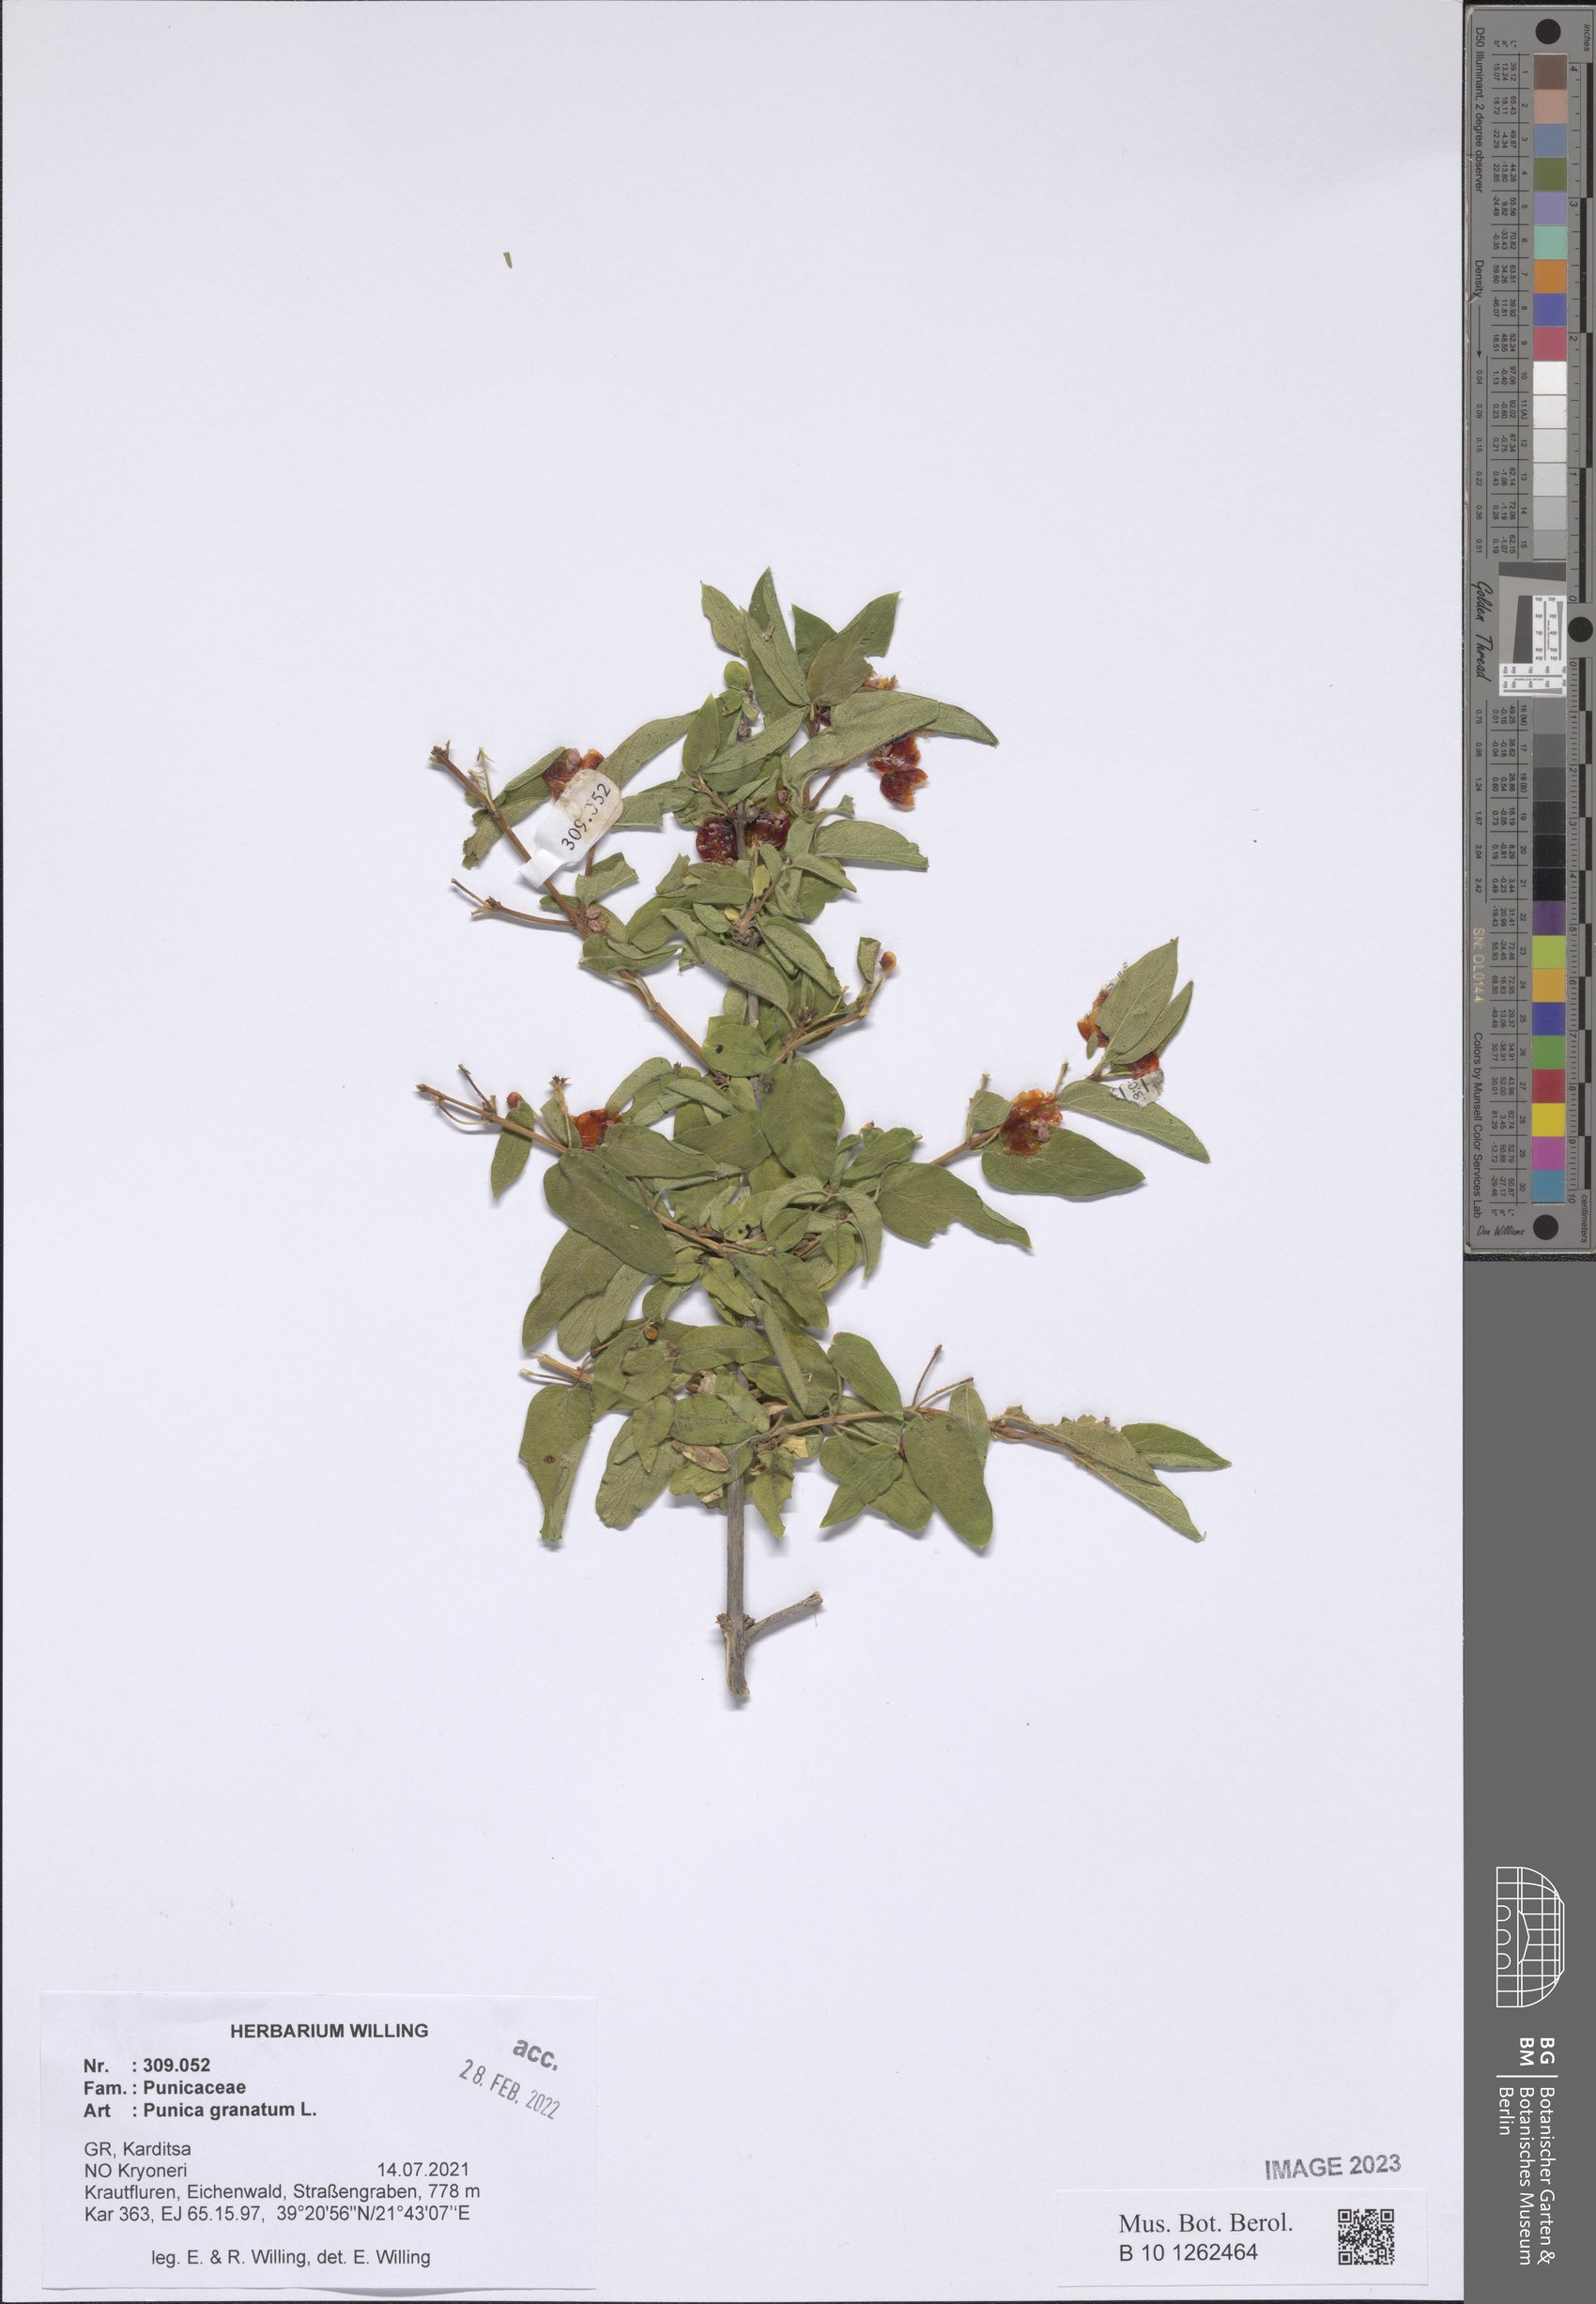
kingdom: Plantae
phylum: Tracheophyta
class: Magnoliopsida
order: Myrtales
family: Lythraceae
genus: Punica
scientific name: Punica granatum
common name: Pomegranate
